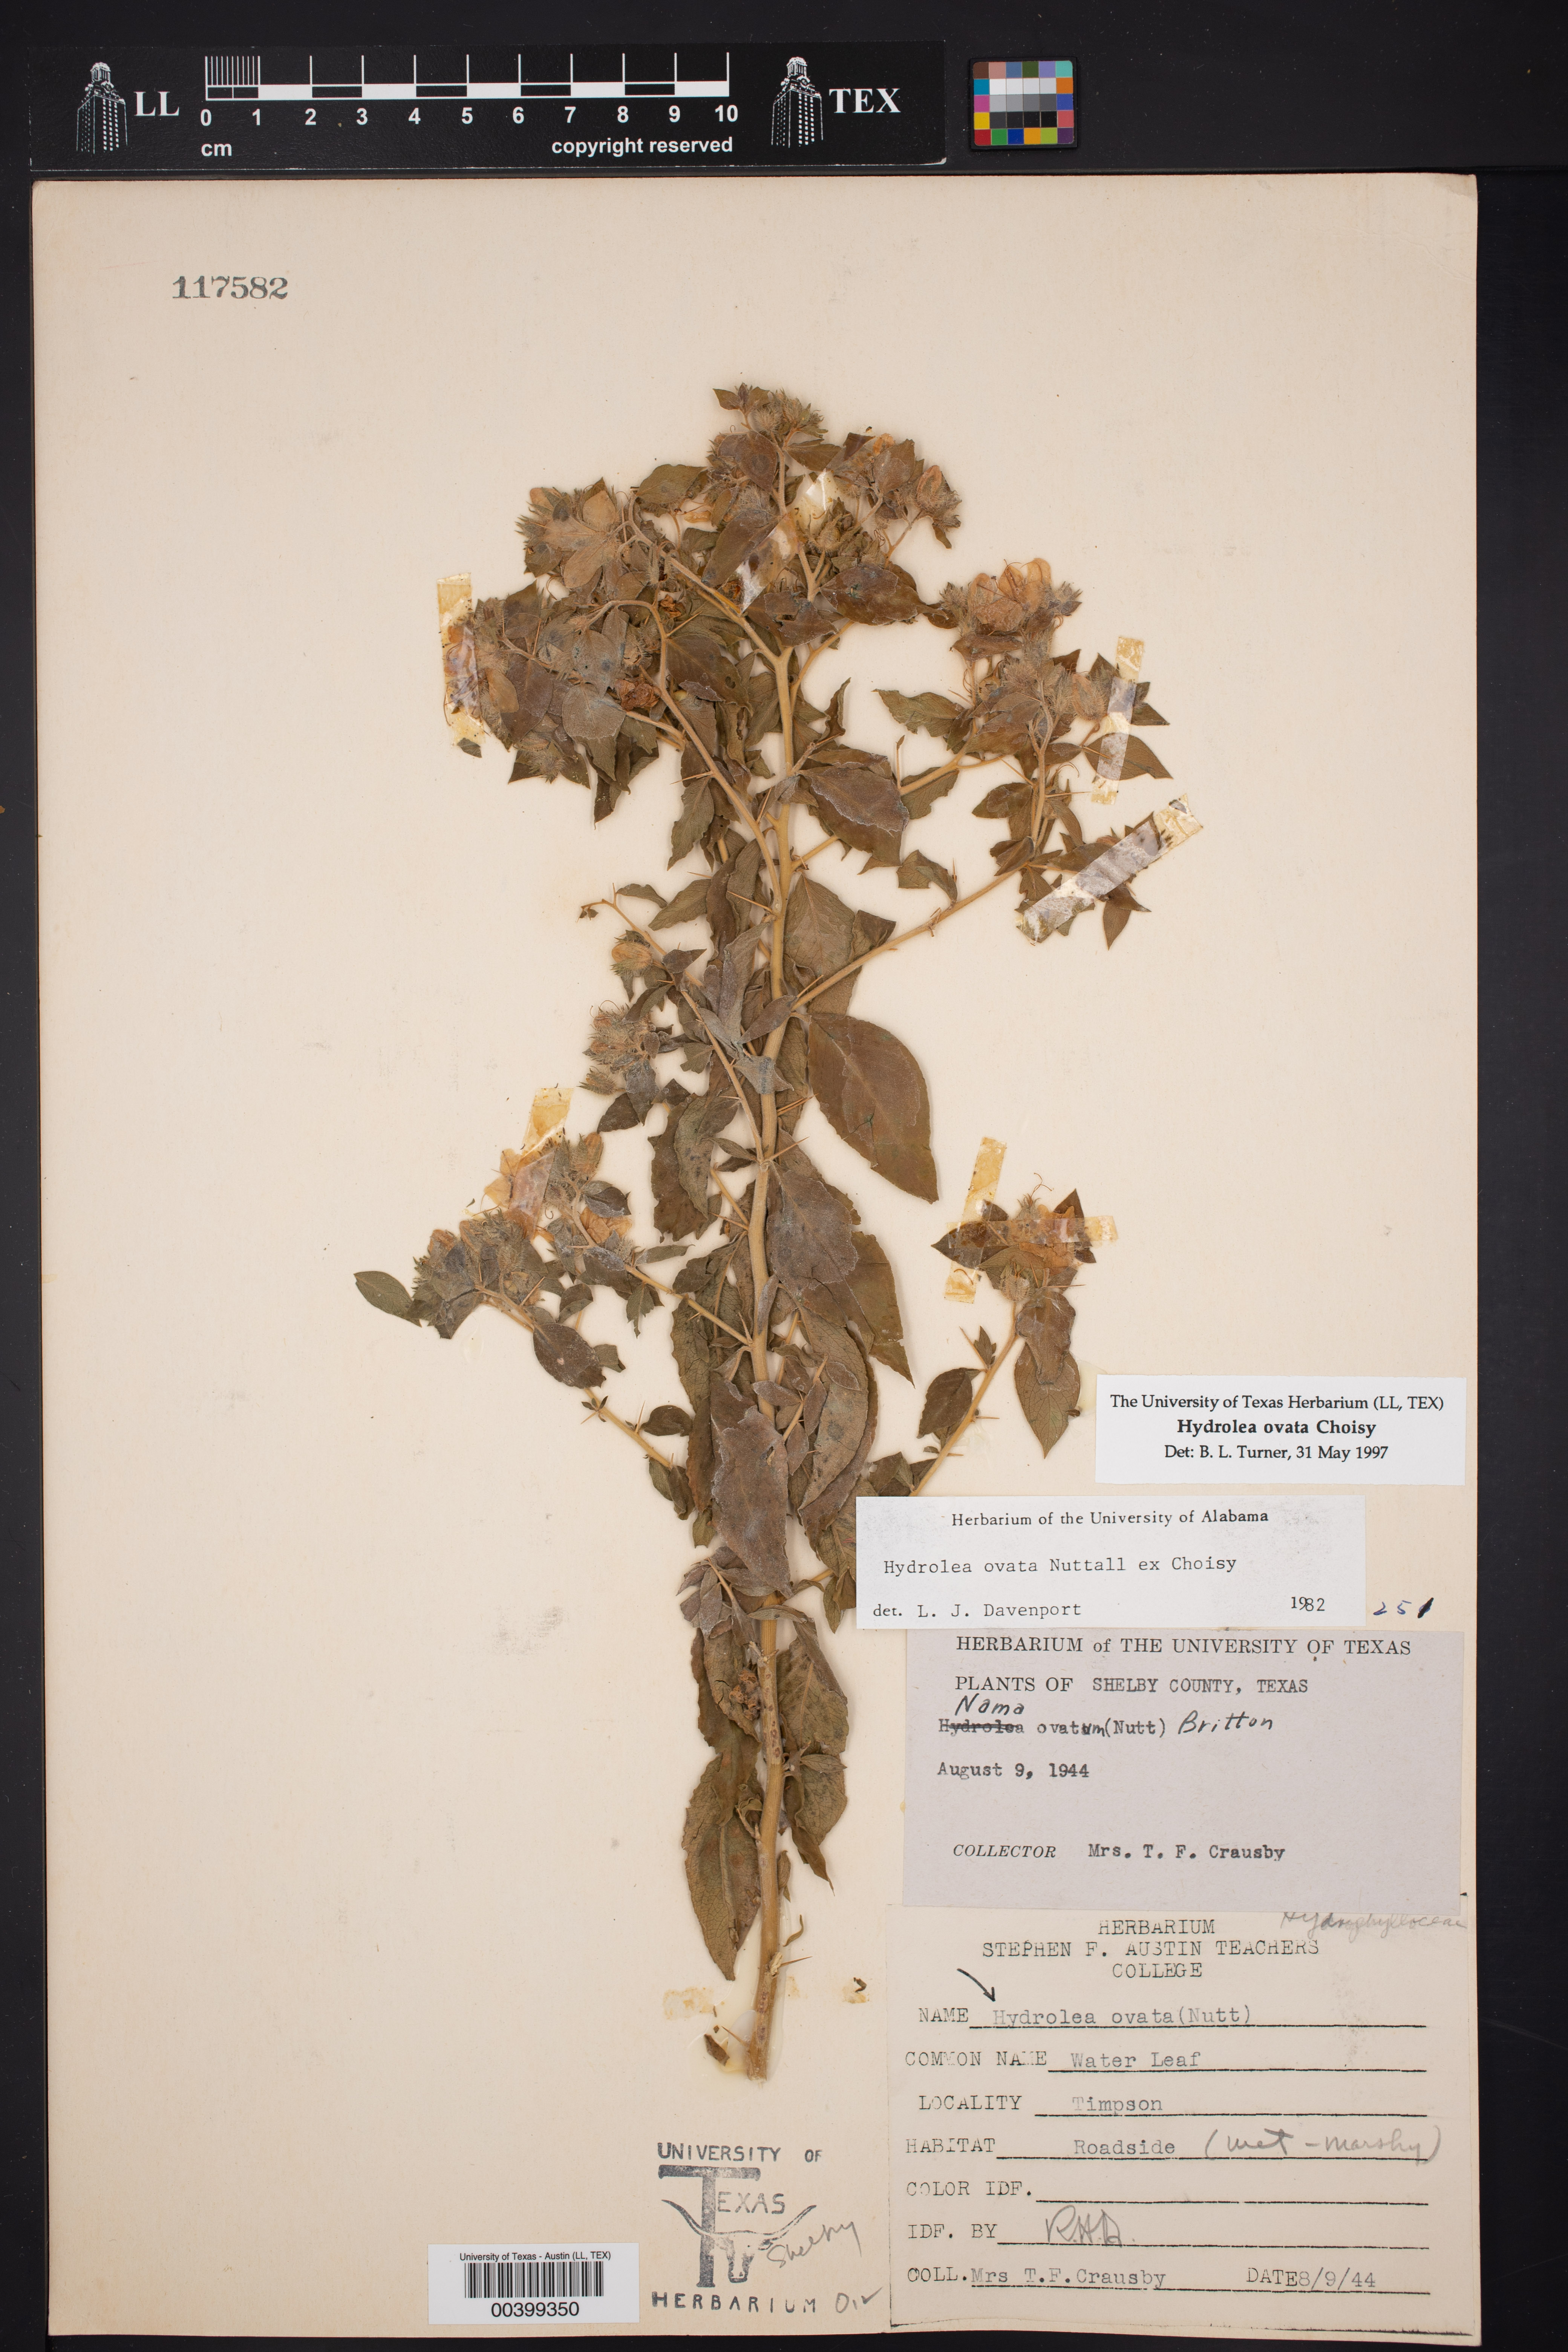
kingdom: Plantae
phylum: Tracheophyta
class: Magnoliopsida
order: Solanales
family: Hydroleaceae
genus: Hydrolea
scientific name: Hydrolea ovata
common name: Ovate false fiddleleaf
